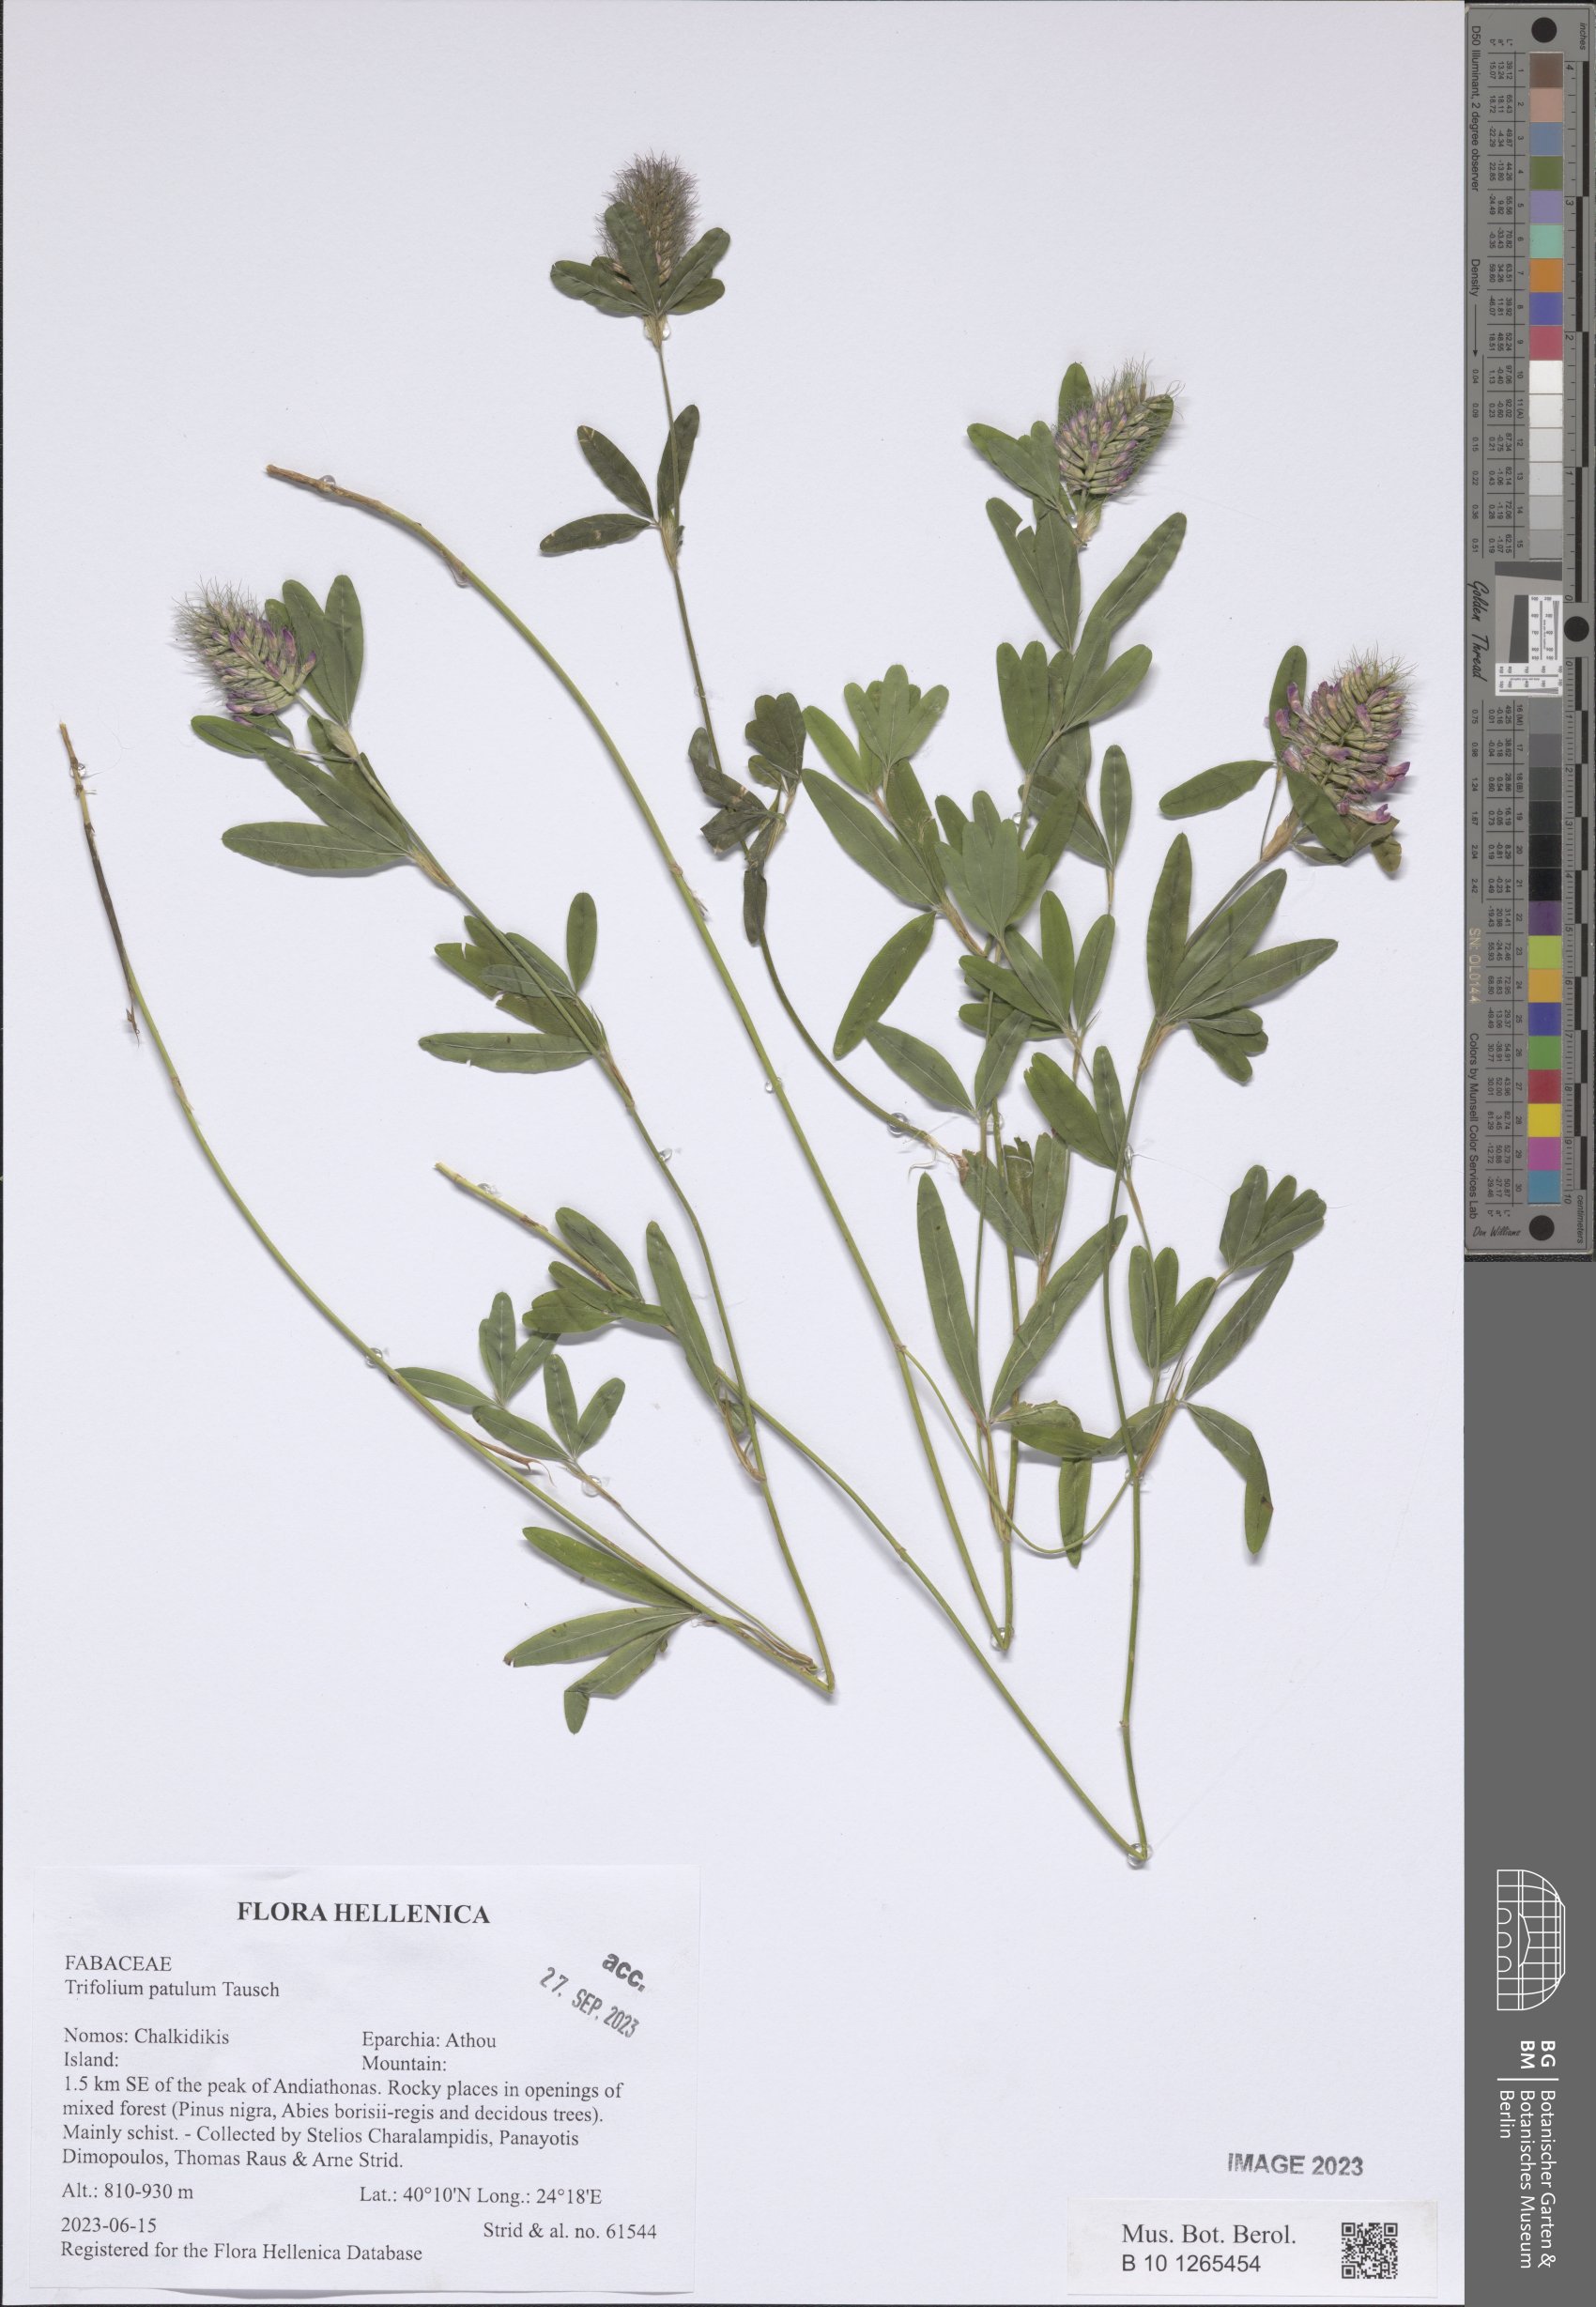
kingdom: Plantae
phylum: Tracheophyta
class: Magnoliopsida
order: Fabales
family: Fabaceae
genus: Trifolium
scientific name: Trifolium patulum
